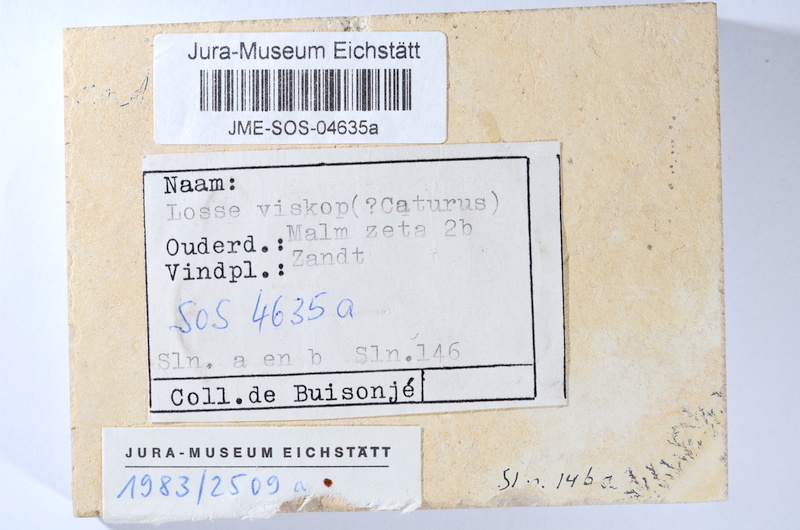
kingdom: Animalia
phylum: Chordata
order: Amiiformes
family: Caturidae
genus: Caturus
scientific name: Caturus
